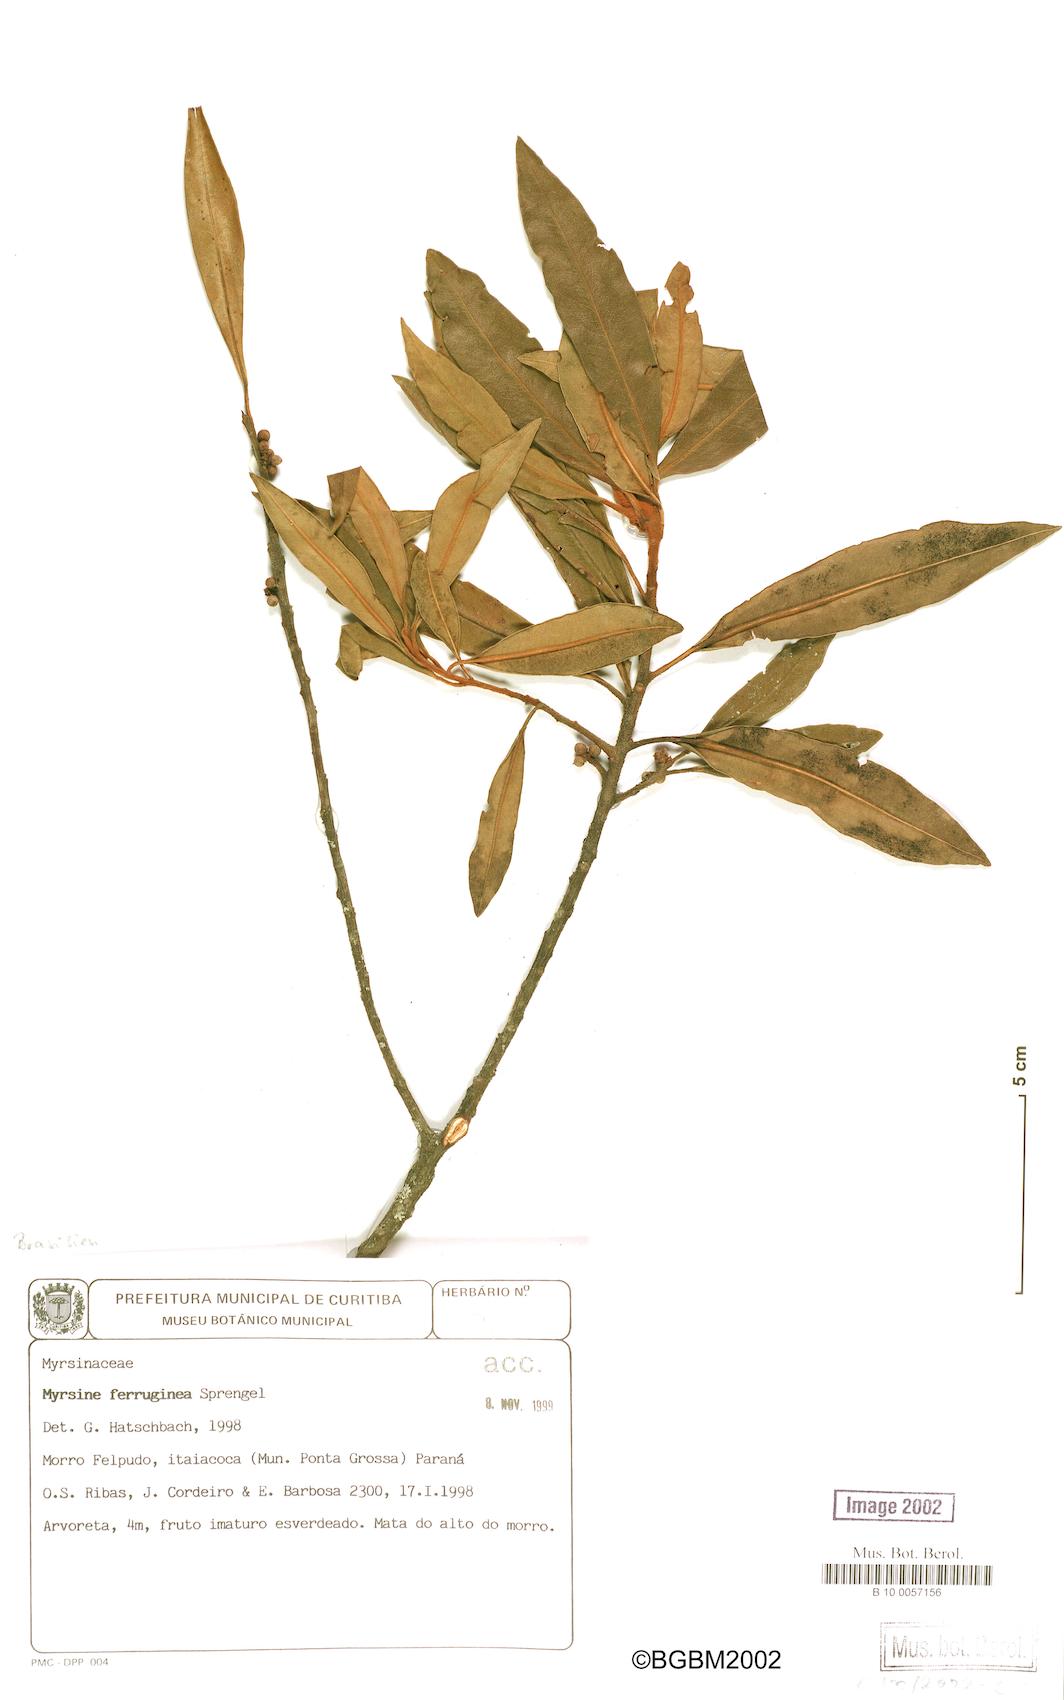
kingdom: Plantae
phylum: Tracheophyta
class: Magnoliopsida
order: Ericales
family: Primulaceae
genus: Myrsine
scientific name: Myrsine coriacea
